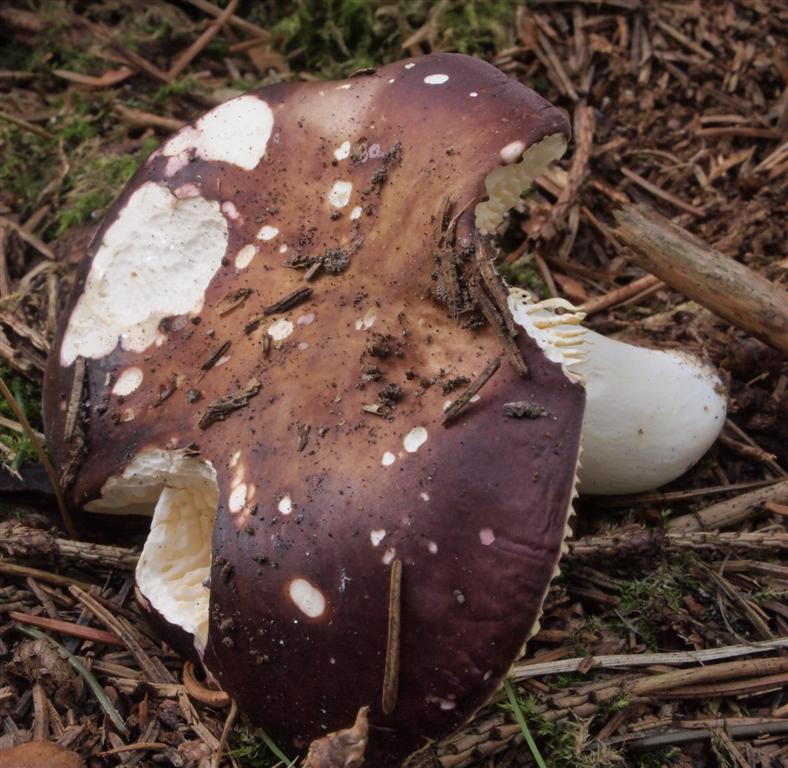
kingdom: Fungi
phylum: Basidiomycota
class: Agaricomycetes
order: Russulales
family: Russulaceae
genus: Russula
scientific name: Russula integra
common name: mandel-skørhat
